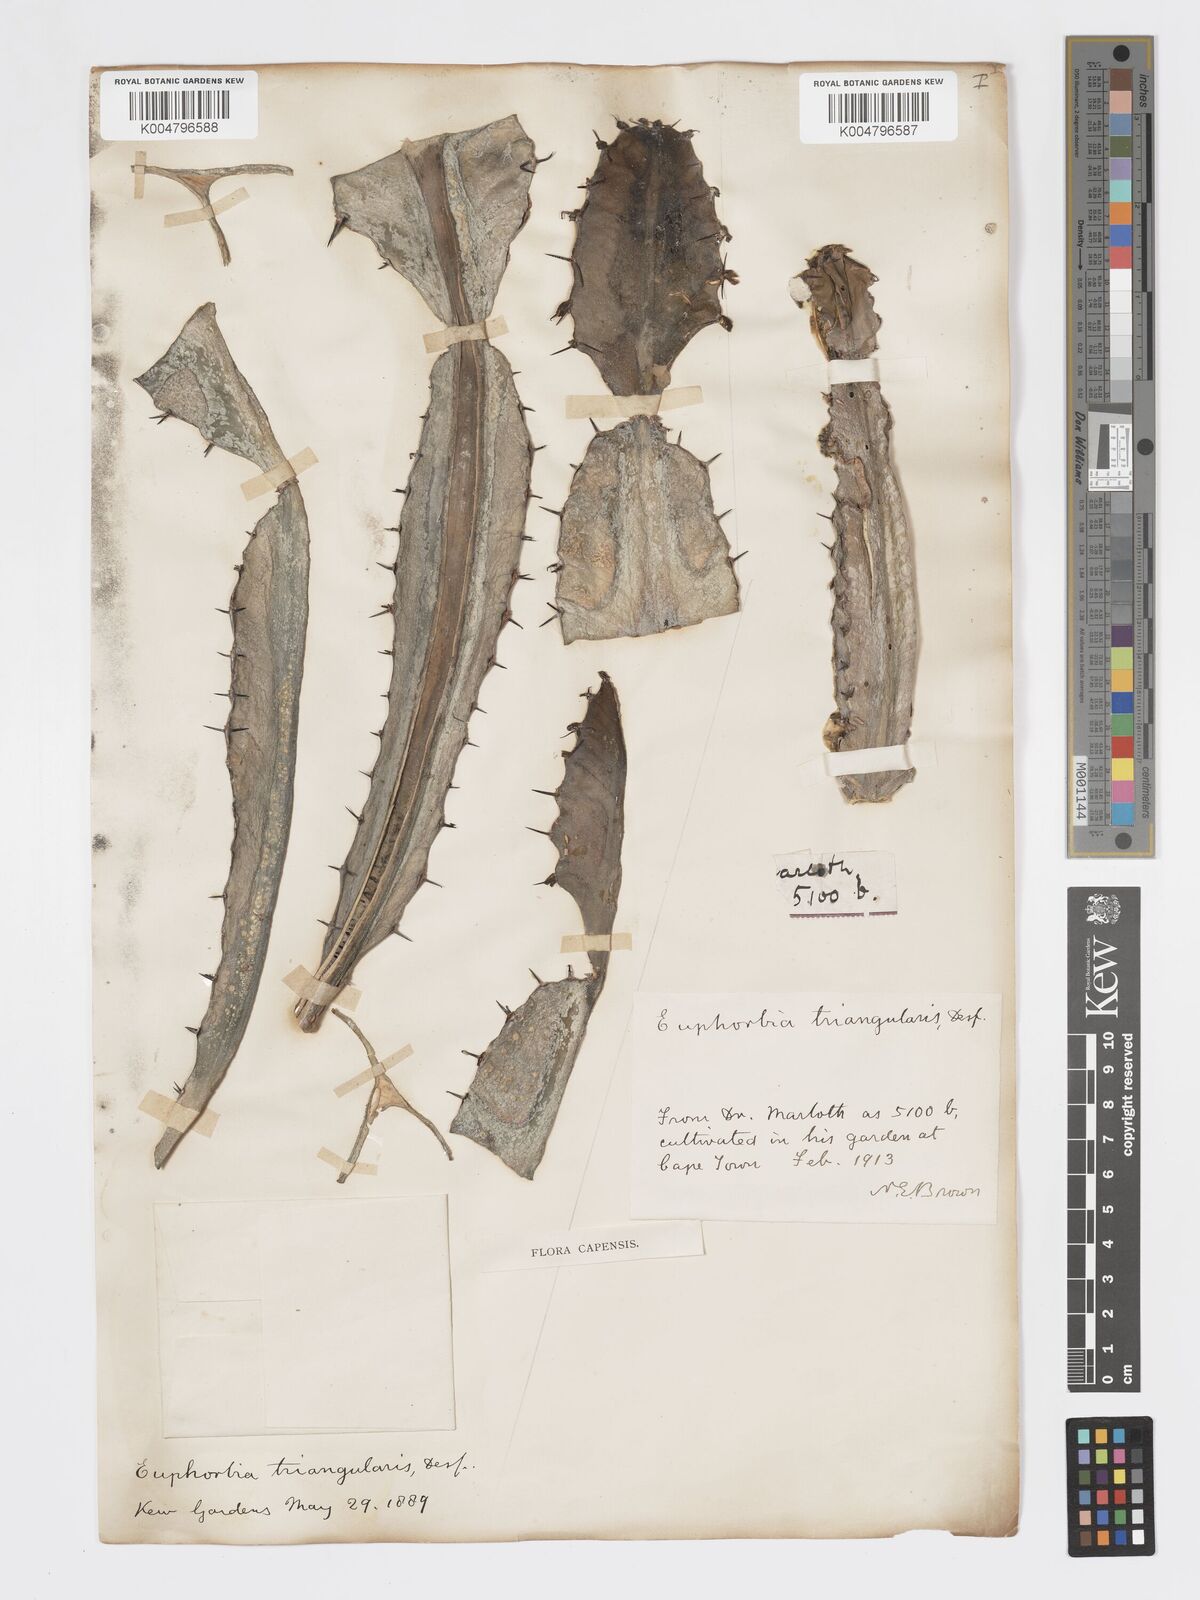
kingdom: Plantae
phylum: Tracheophyta
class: Magnoliopsida
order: Malpighiales
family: Euphorbiaceae
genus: Euphorbia
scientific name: Euphorbia triangularis
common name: Chandelier tree
